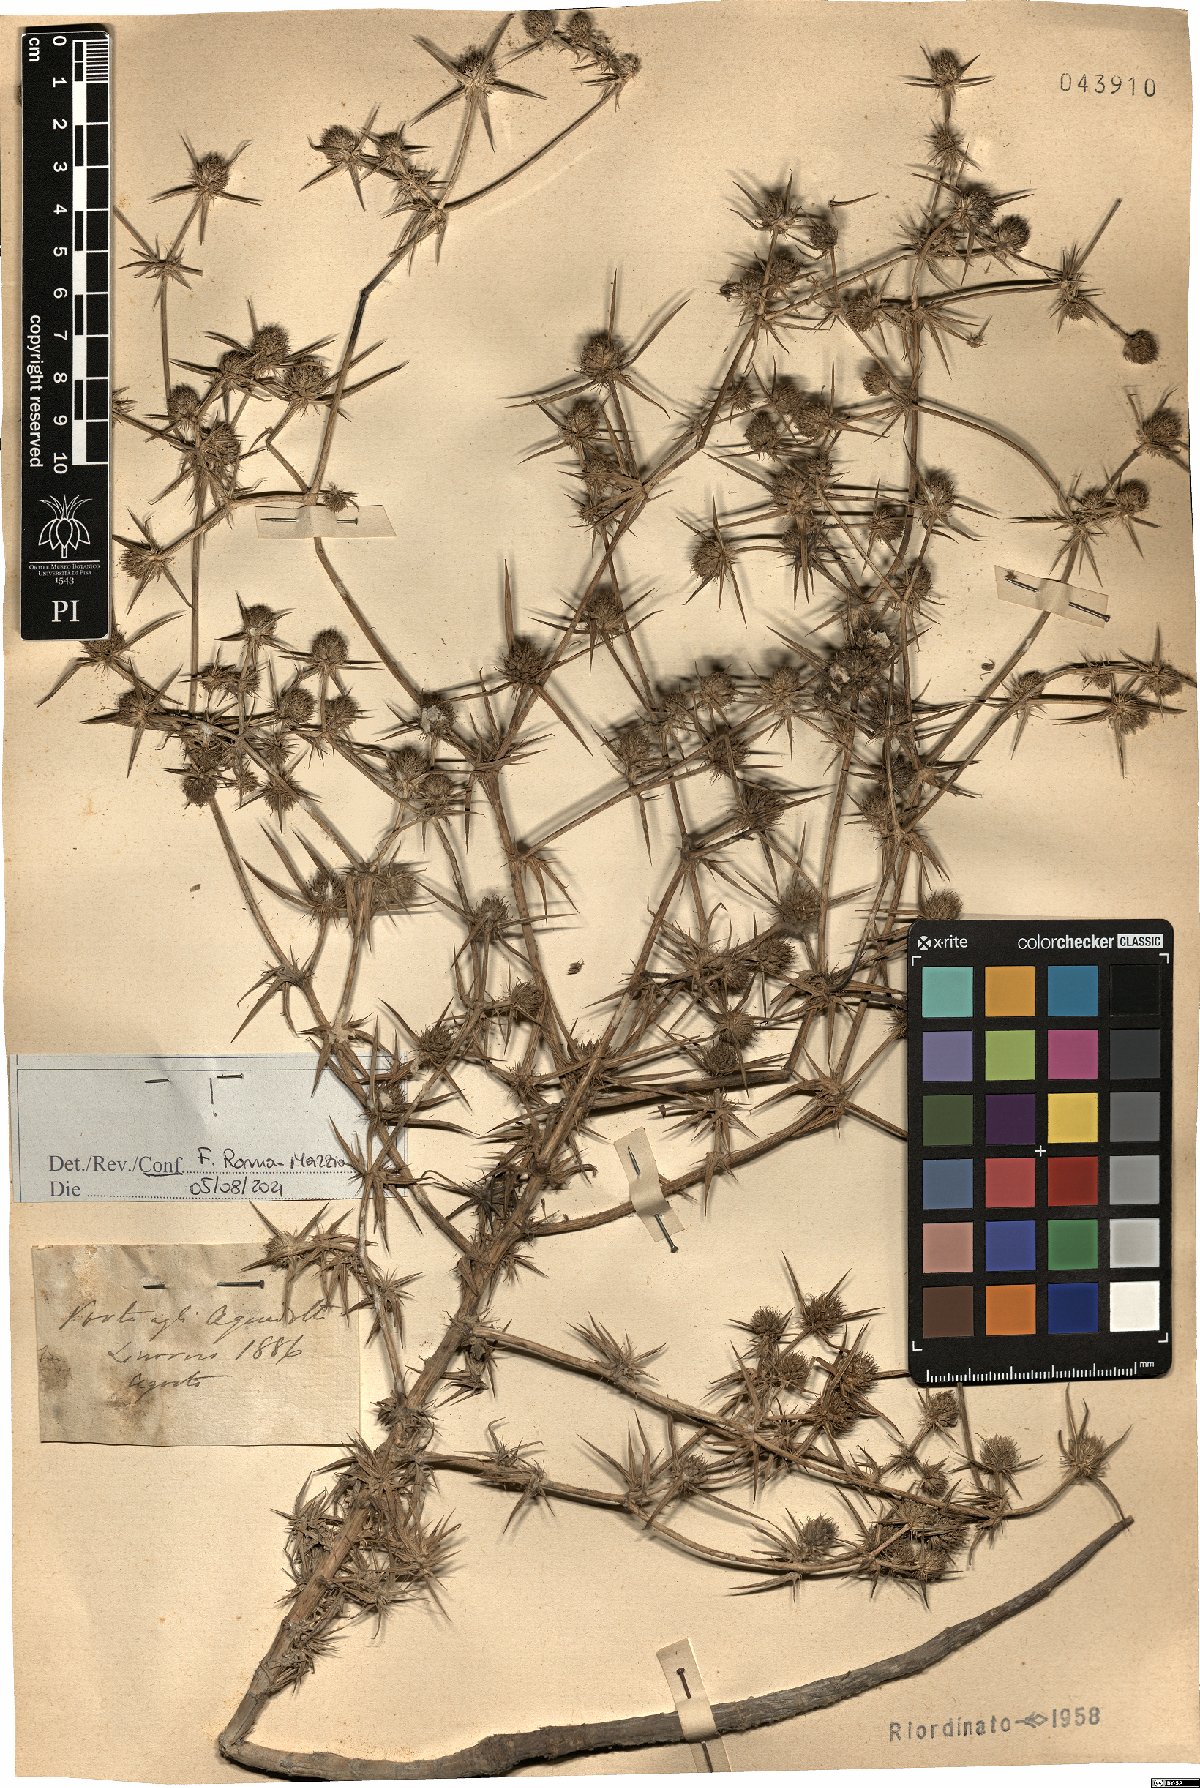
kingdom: Plantae
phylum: Tracheophyta
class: Magnoliopsida
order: Apiales
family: Apiaceae
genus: Eryngium
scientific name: Eryngium creticum
